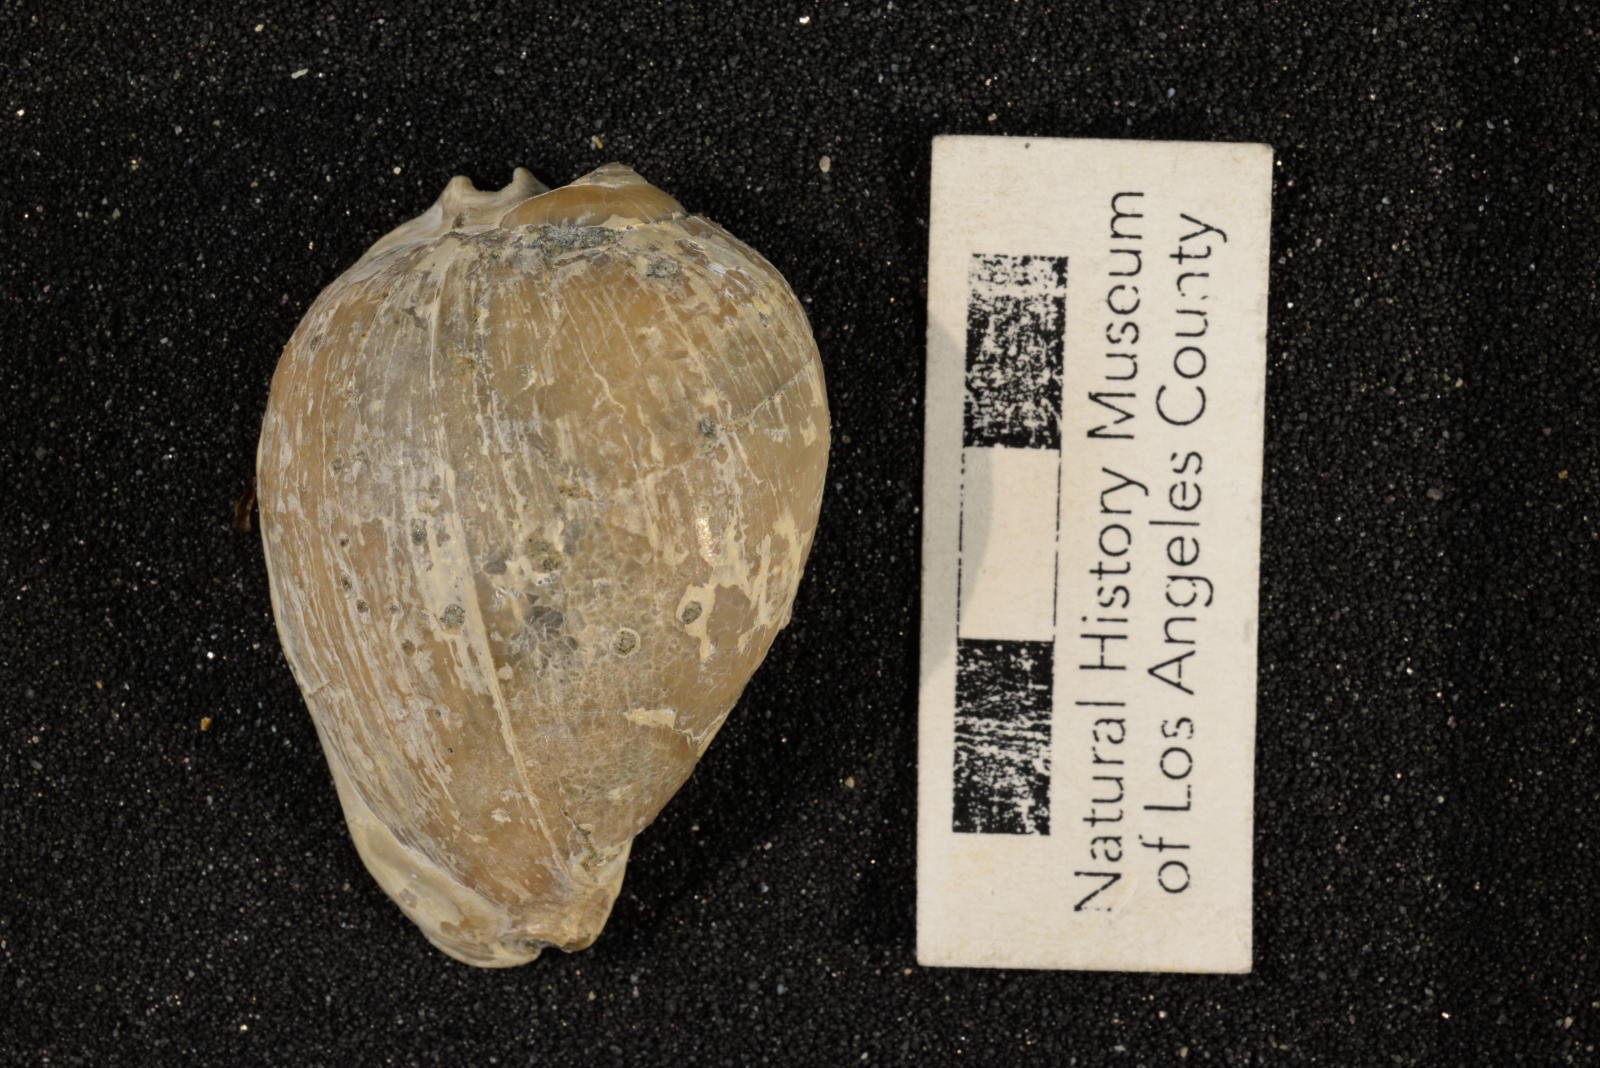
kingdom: Animalia
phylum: Mollusca
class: Gastropoda
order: Littorinimorpha
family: Cypraeidae
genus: Protocypraea
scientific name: Protocypraea
